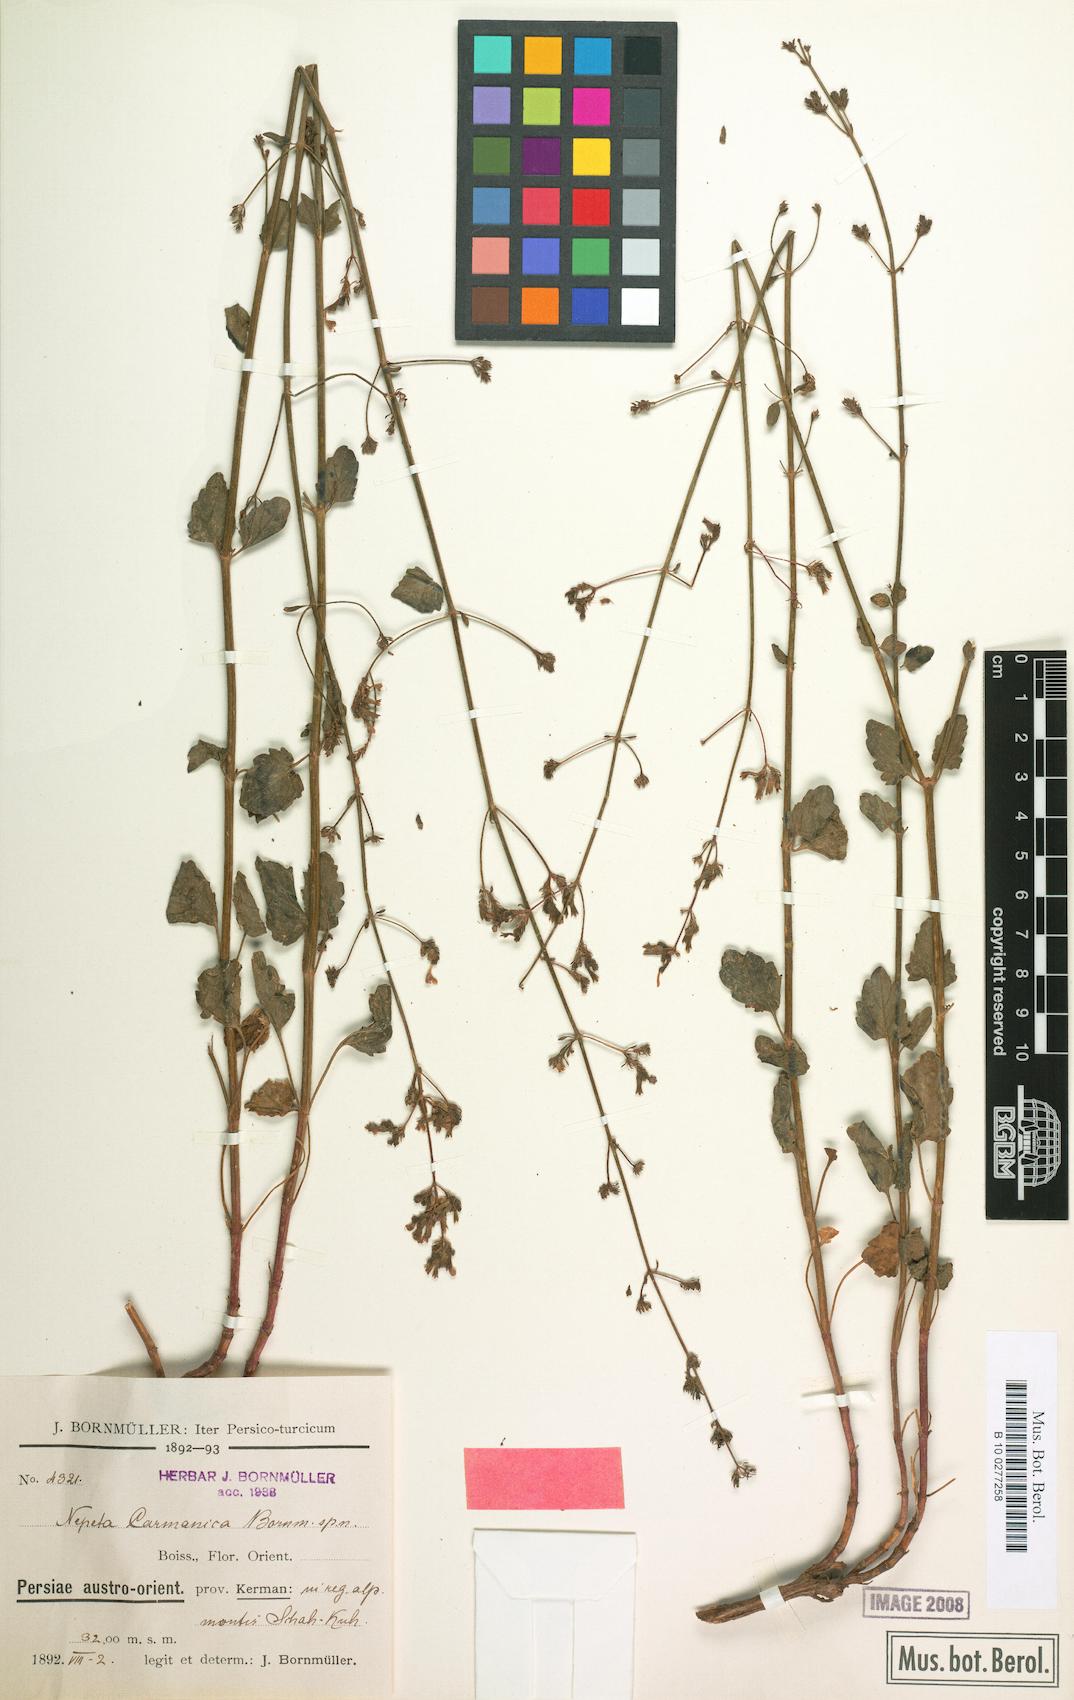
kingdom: Plantae
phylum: Tracheophyta
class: Magnoliopsida
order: Lamiales
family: Lamiaceae
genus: Nepeta
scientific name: Nepeta teucriifolia
